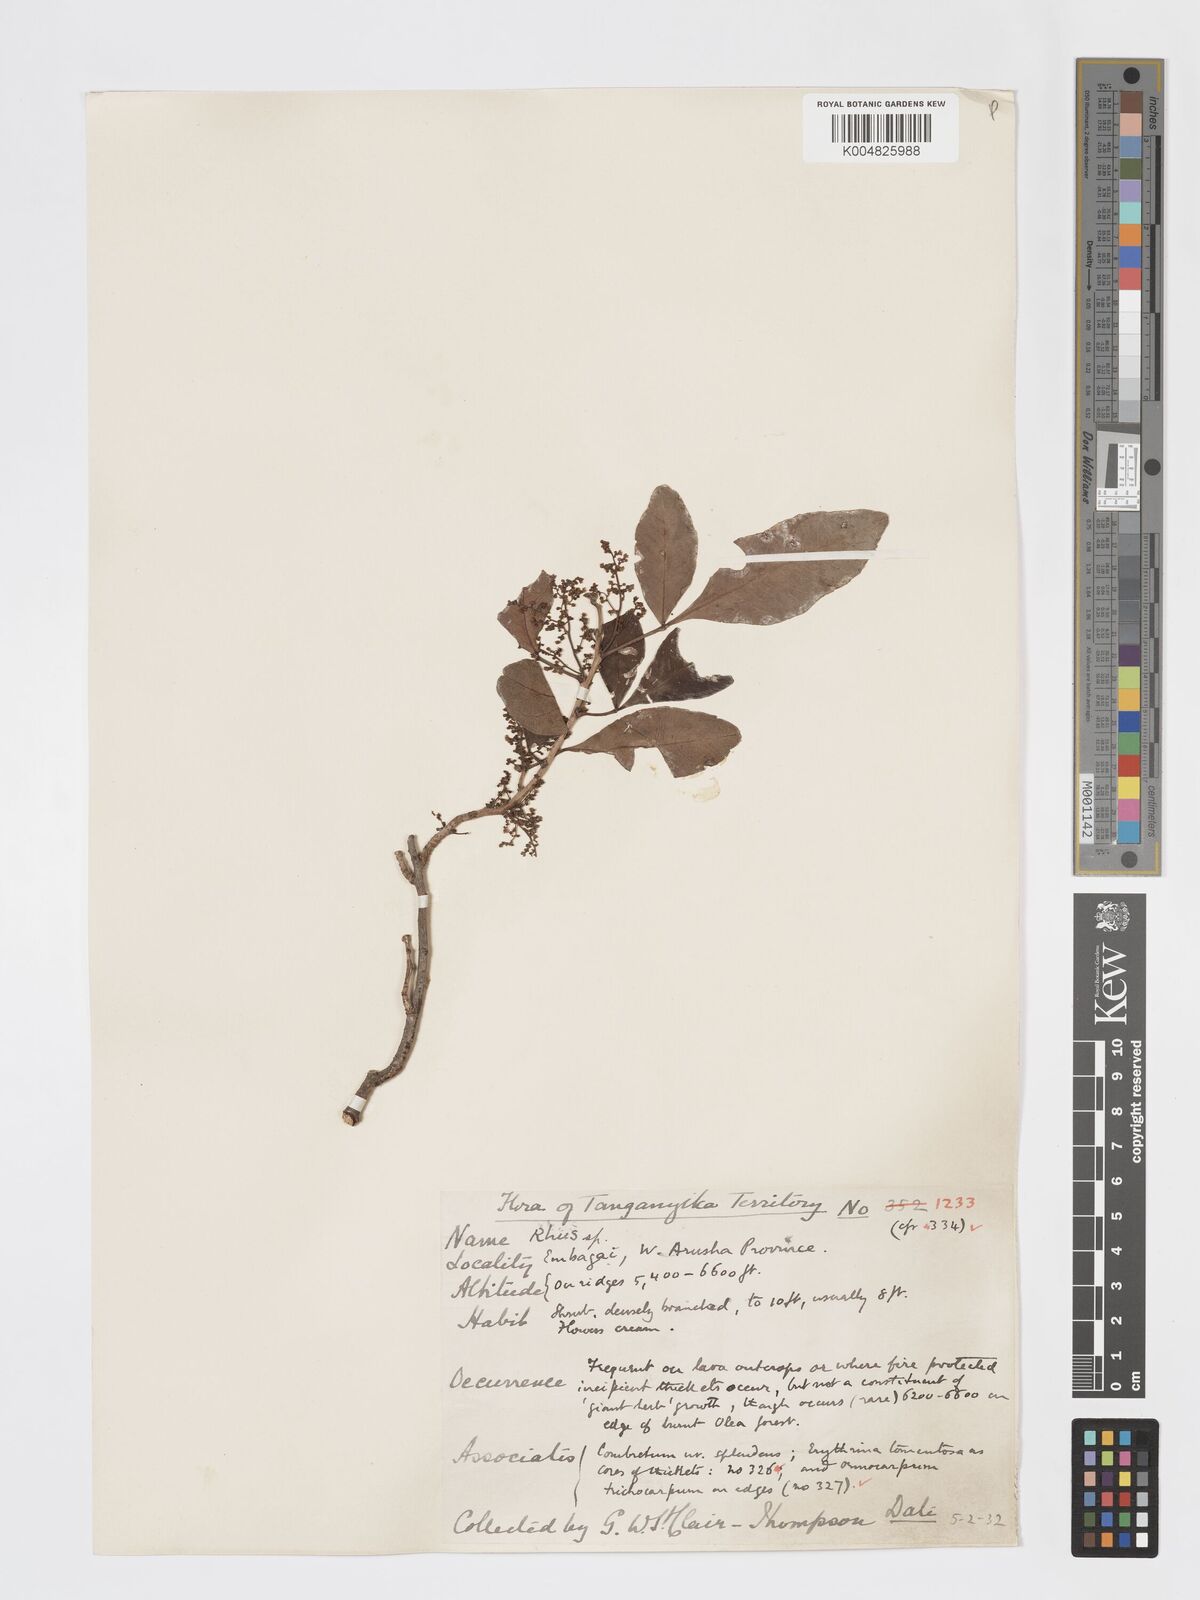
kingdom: Plantae
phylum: Tracheophyta
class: Magnoliopsida
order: Sapindales
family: Anacardiaceae
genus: Searsia
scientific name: Searsia natalensis
